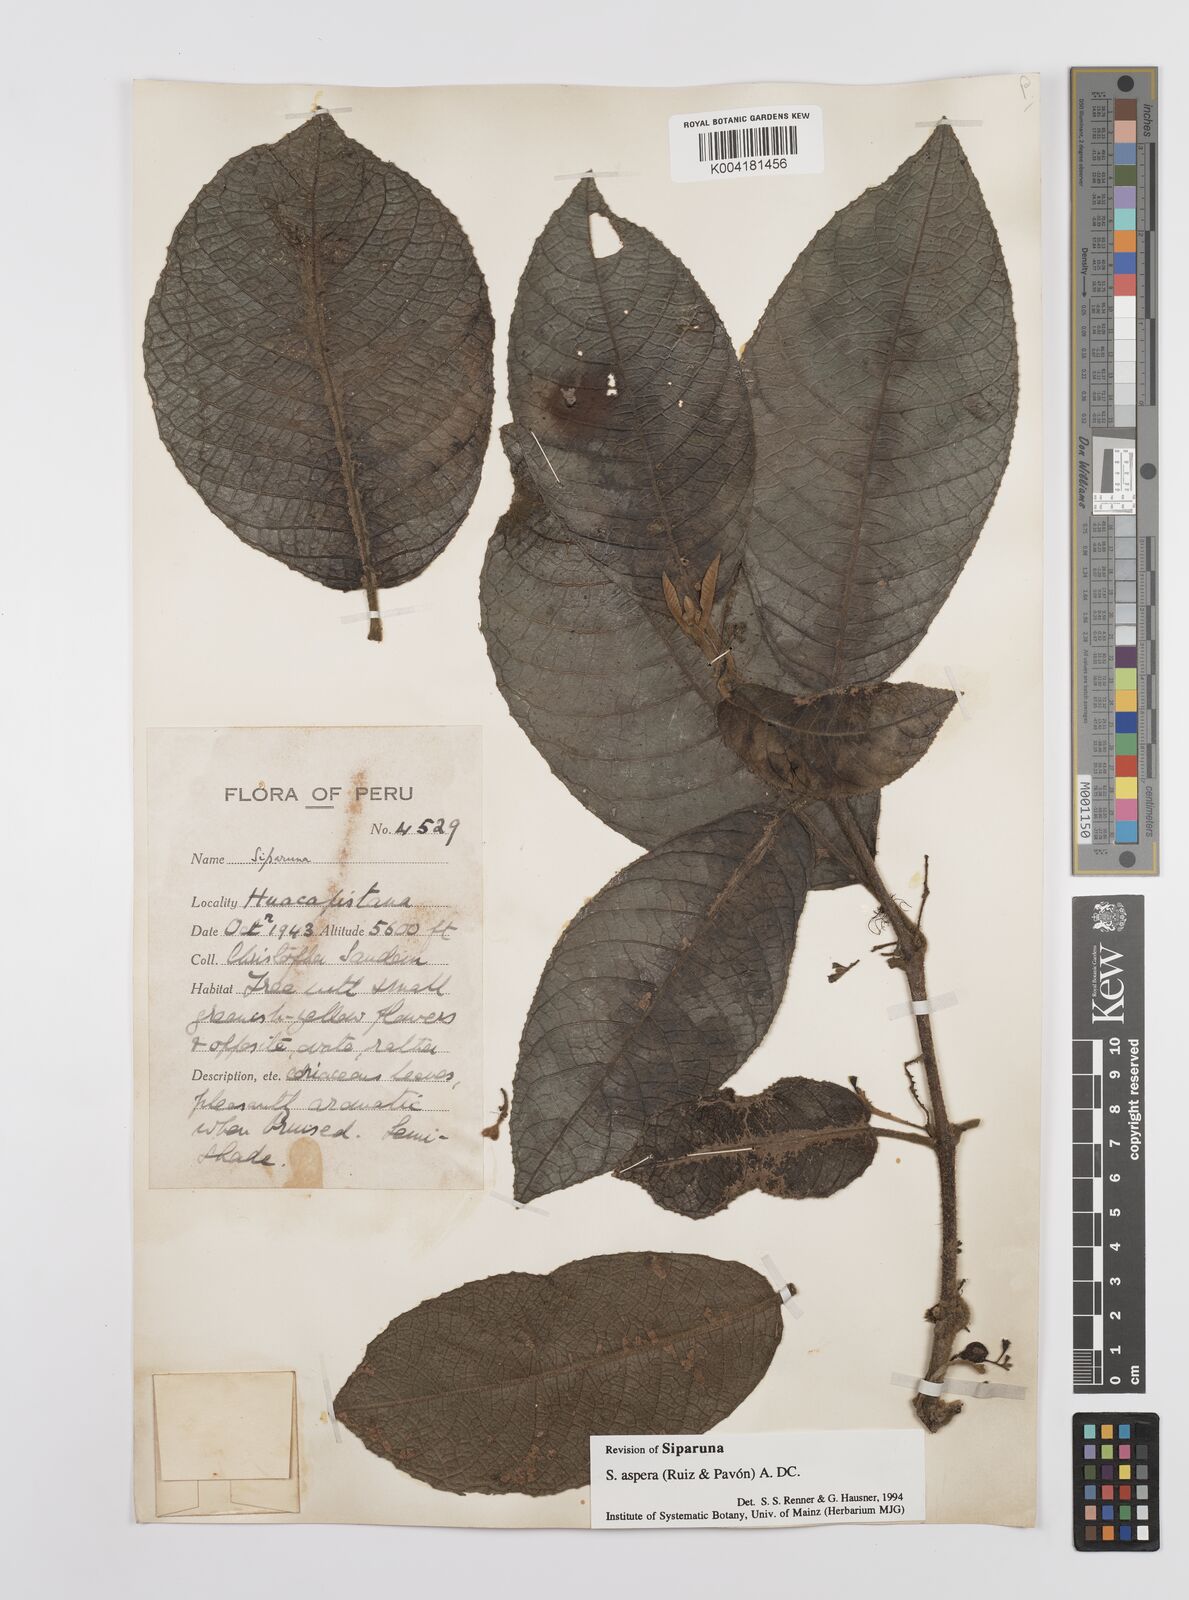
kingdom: Plantae
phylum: Tracheophyta
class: Magnoliopsida
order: Laurales
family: Siparunaceae
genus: Siparuna
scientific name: Siparuna aspera
